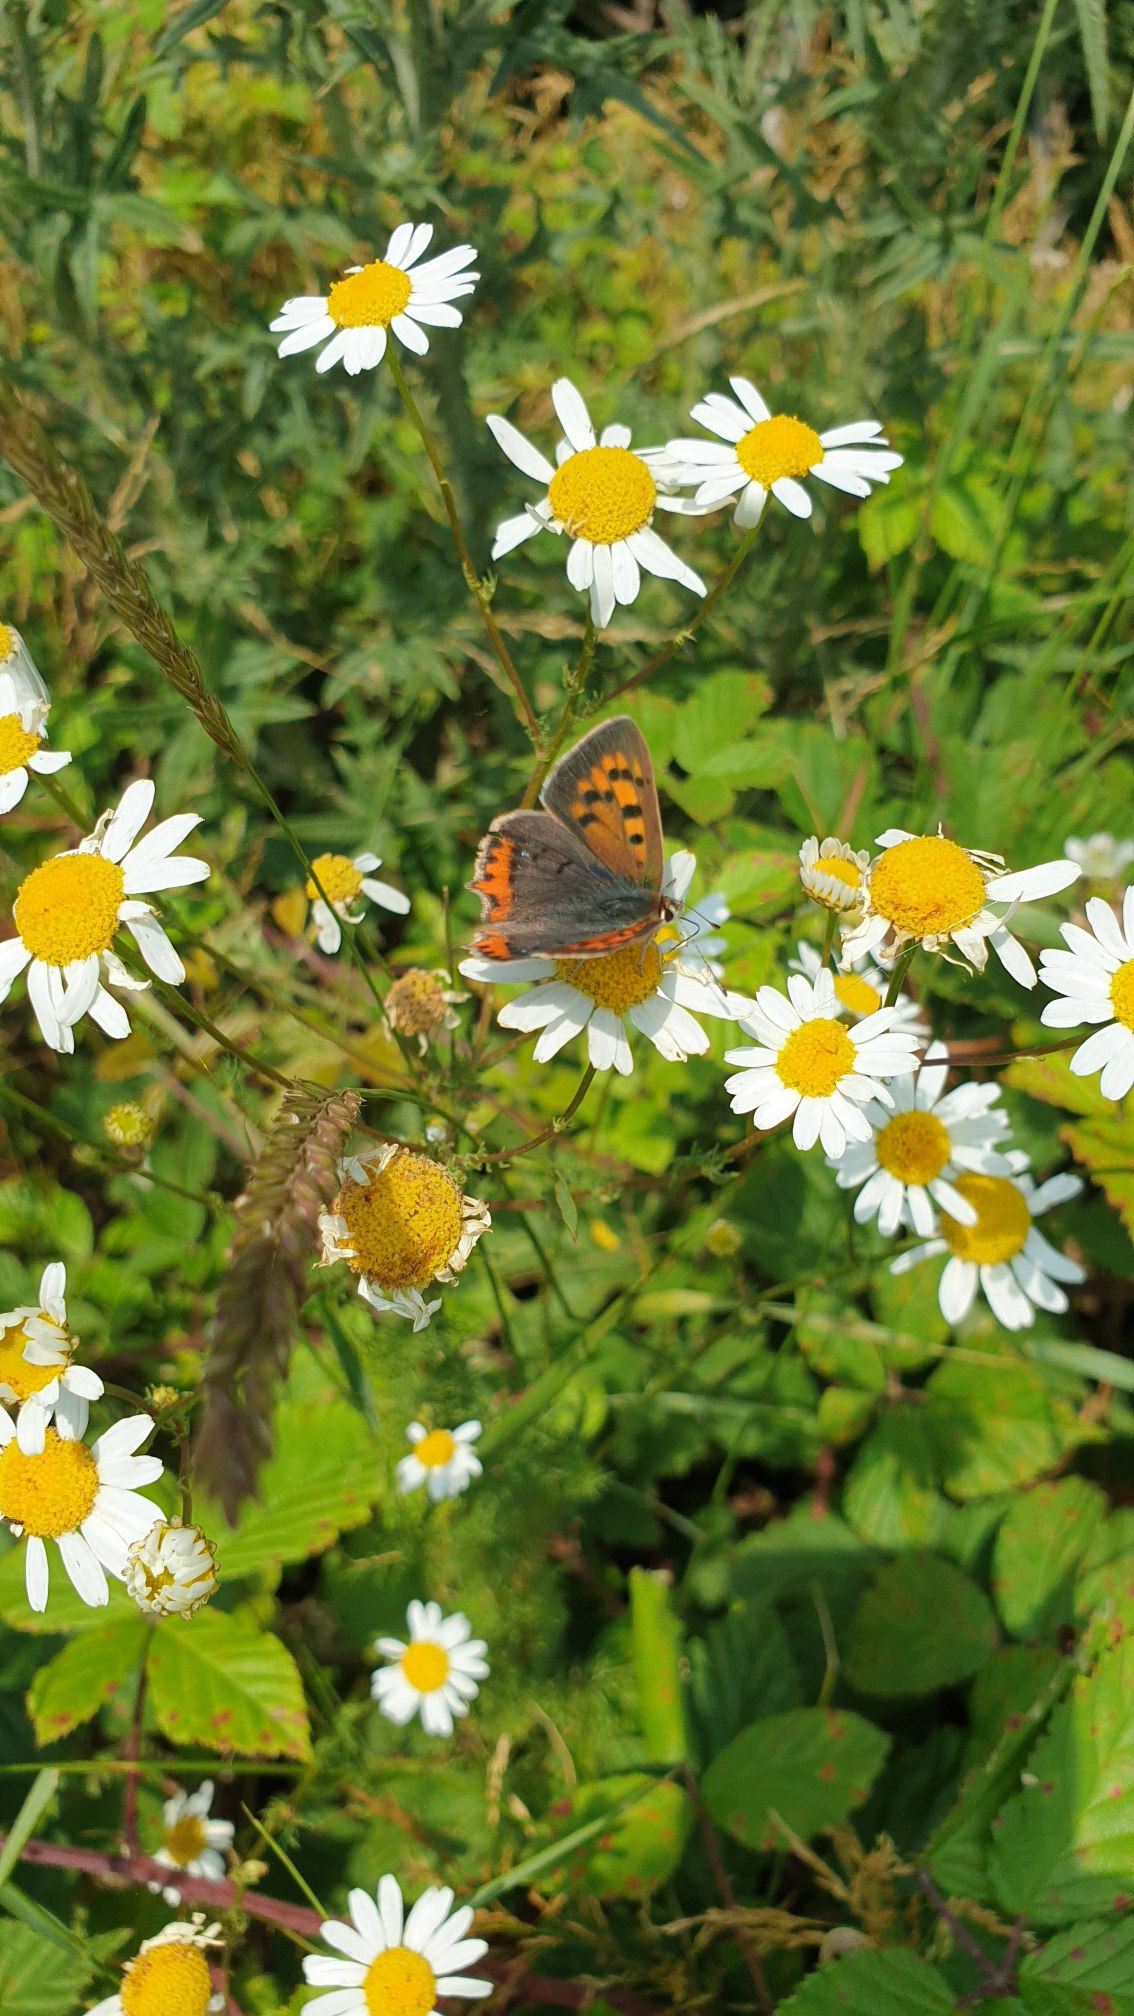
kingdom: Animalia
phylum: Arthropoda
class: Insecta
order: Lepidoptera
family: Lycaenidae
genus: Lycaena
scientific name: Lycaena phlaeas
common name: Lille ildfugl
